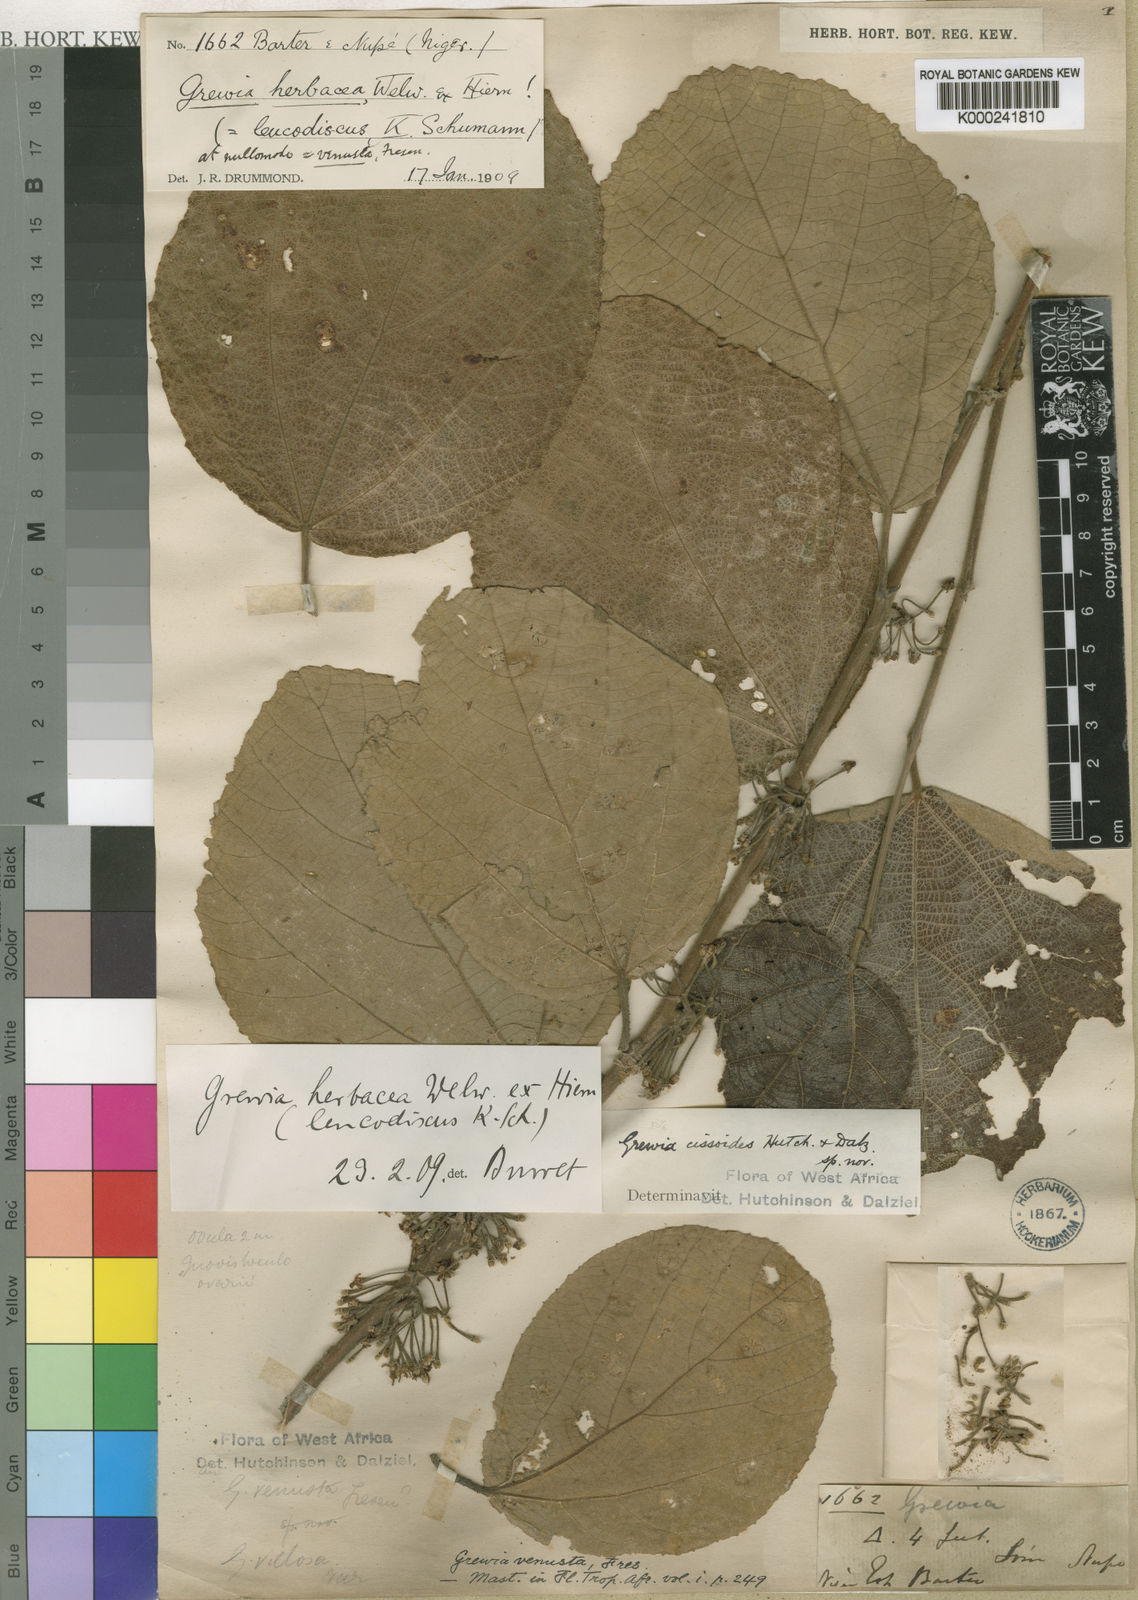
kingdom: Plantae
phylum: Tracheophyta
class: Magnoliopsida
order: Malvales
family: Malvaceae
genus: Grewia
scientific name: Grewia cissoides
